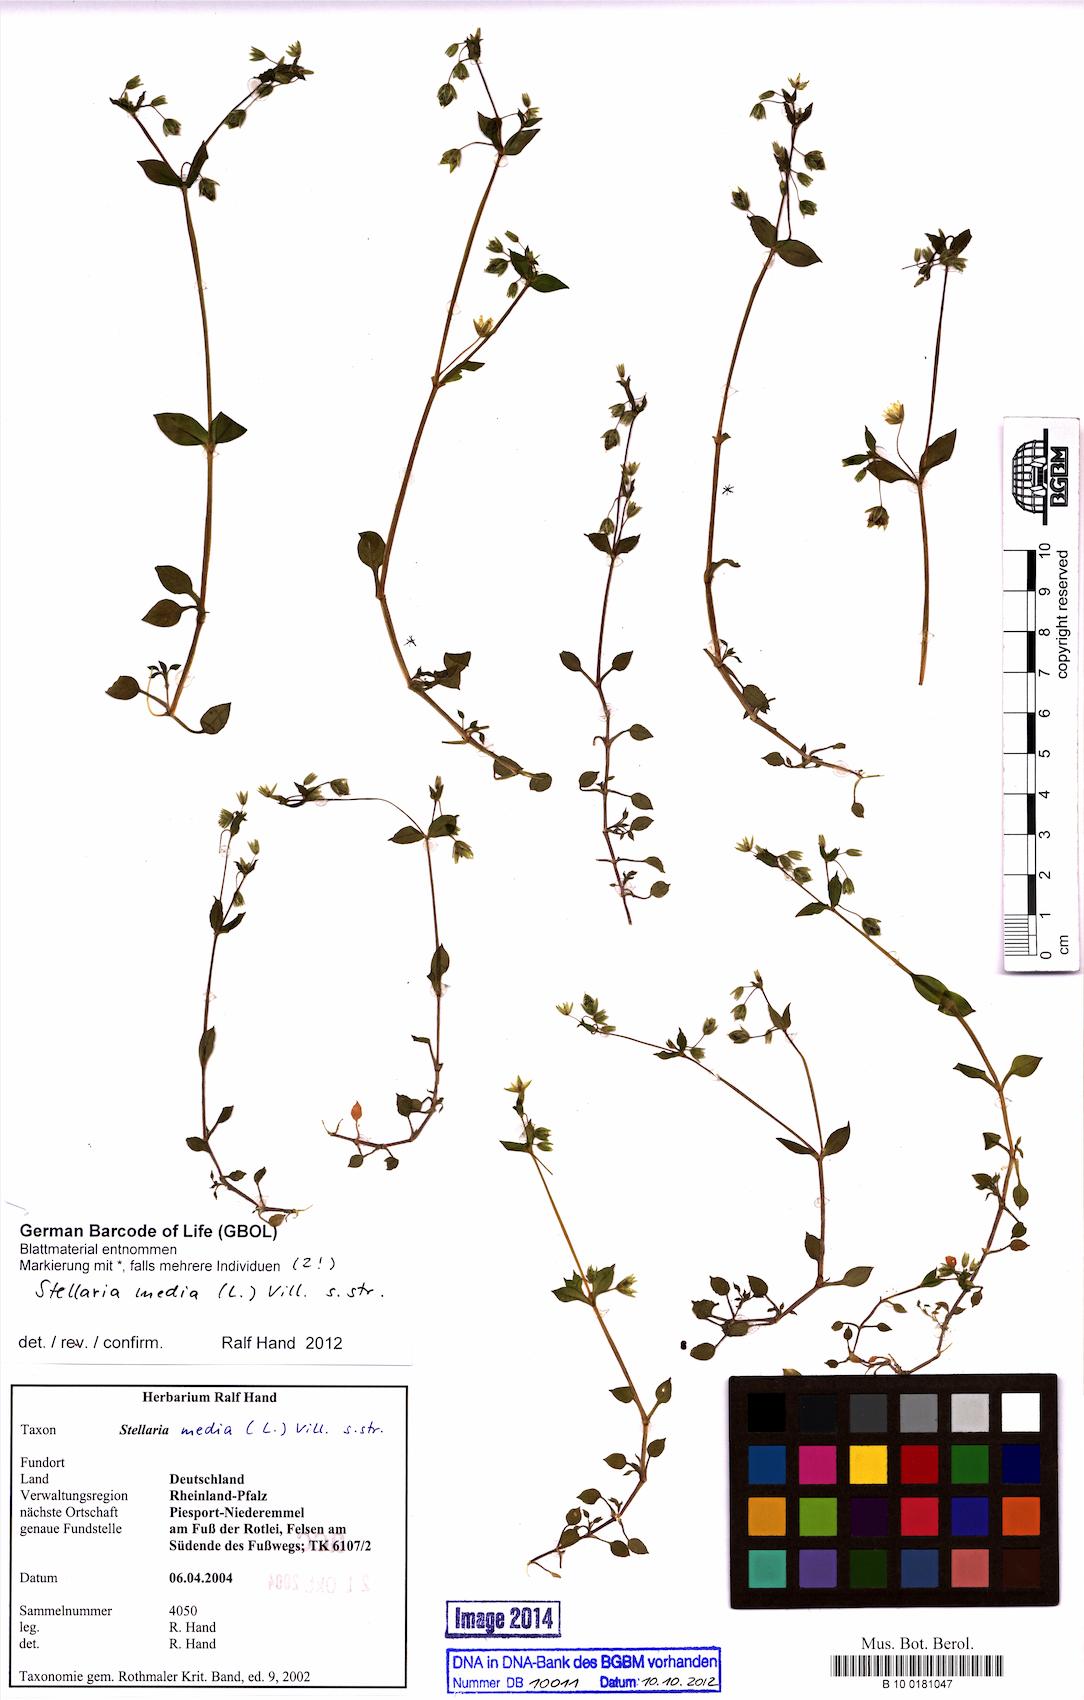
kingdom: Plantae
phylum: Tracheophyta
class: Magnoliopsida
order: Caryophyllales
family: Caryophyllaceae
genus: Stellaria
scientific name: Stellaria media
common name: Common chickweed
